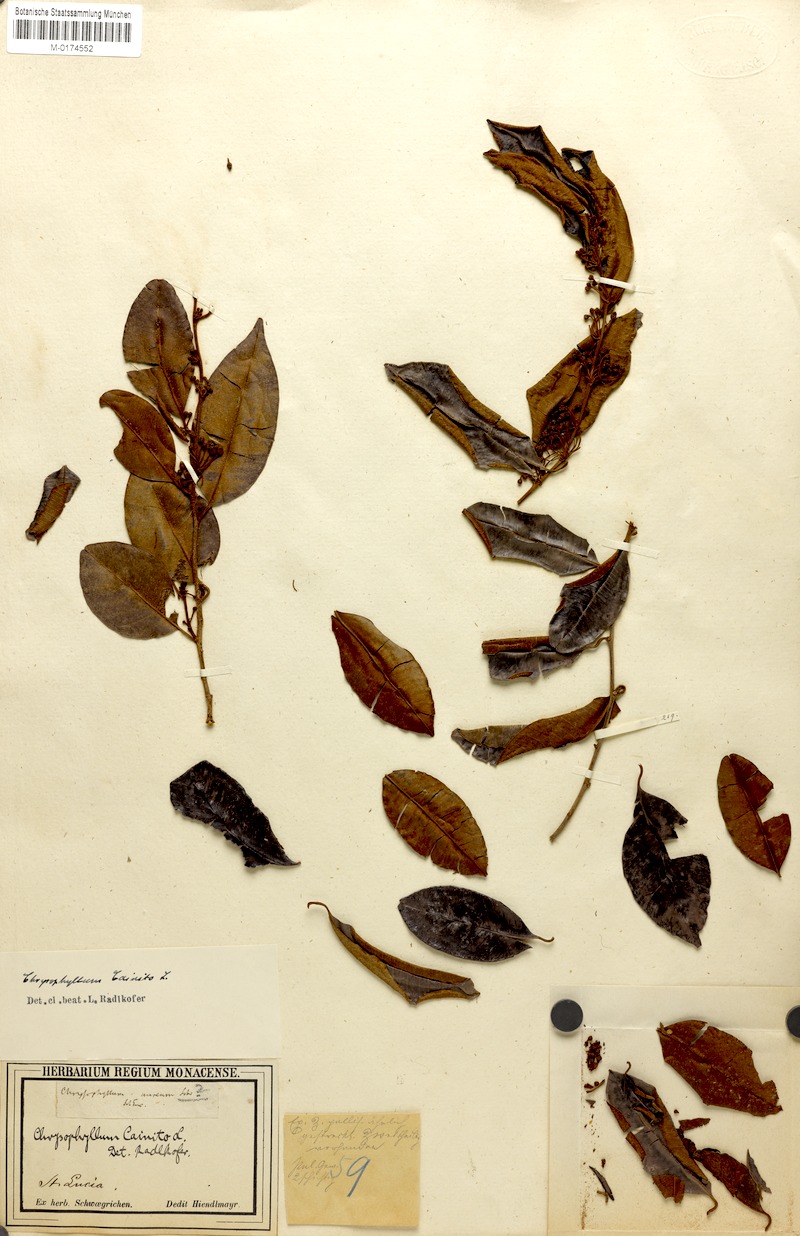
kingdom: Plantae
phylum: Tracheophyta
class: Magnoliopsida
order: Ericales
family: Sapotaceae
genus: Chrysophyllum
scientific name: Chrysophyllum cainito
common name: Star-apple
